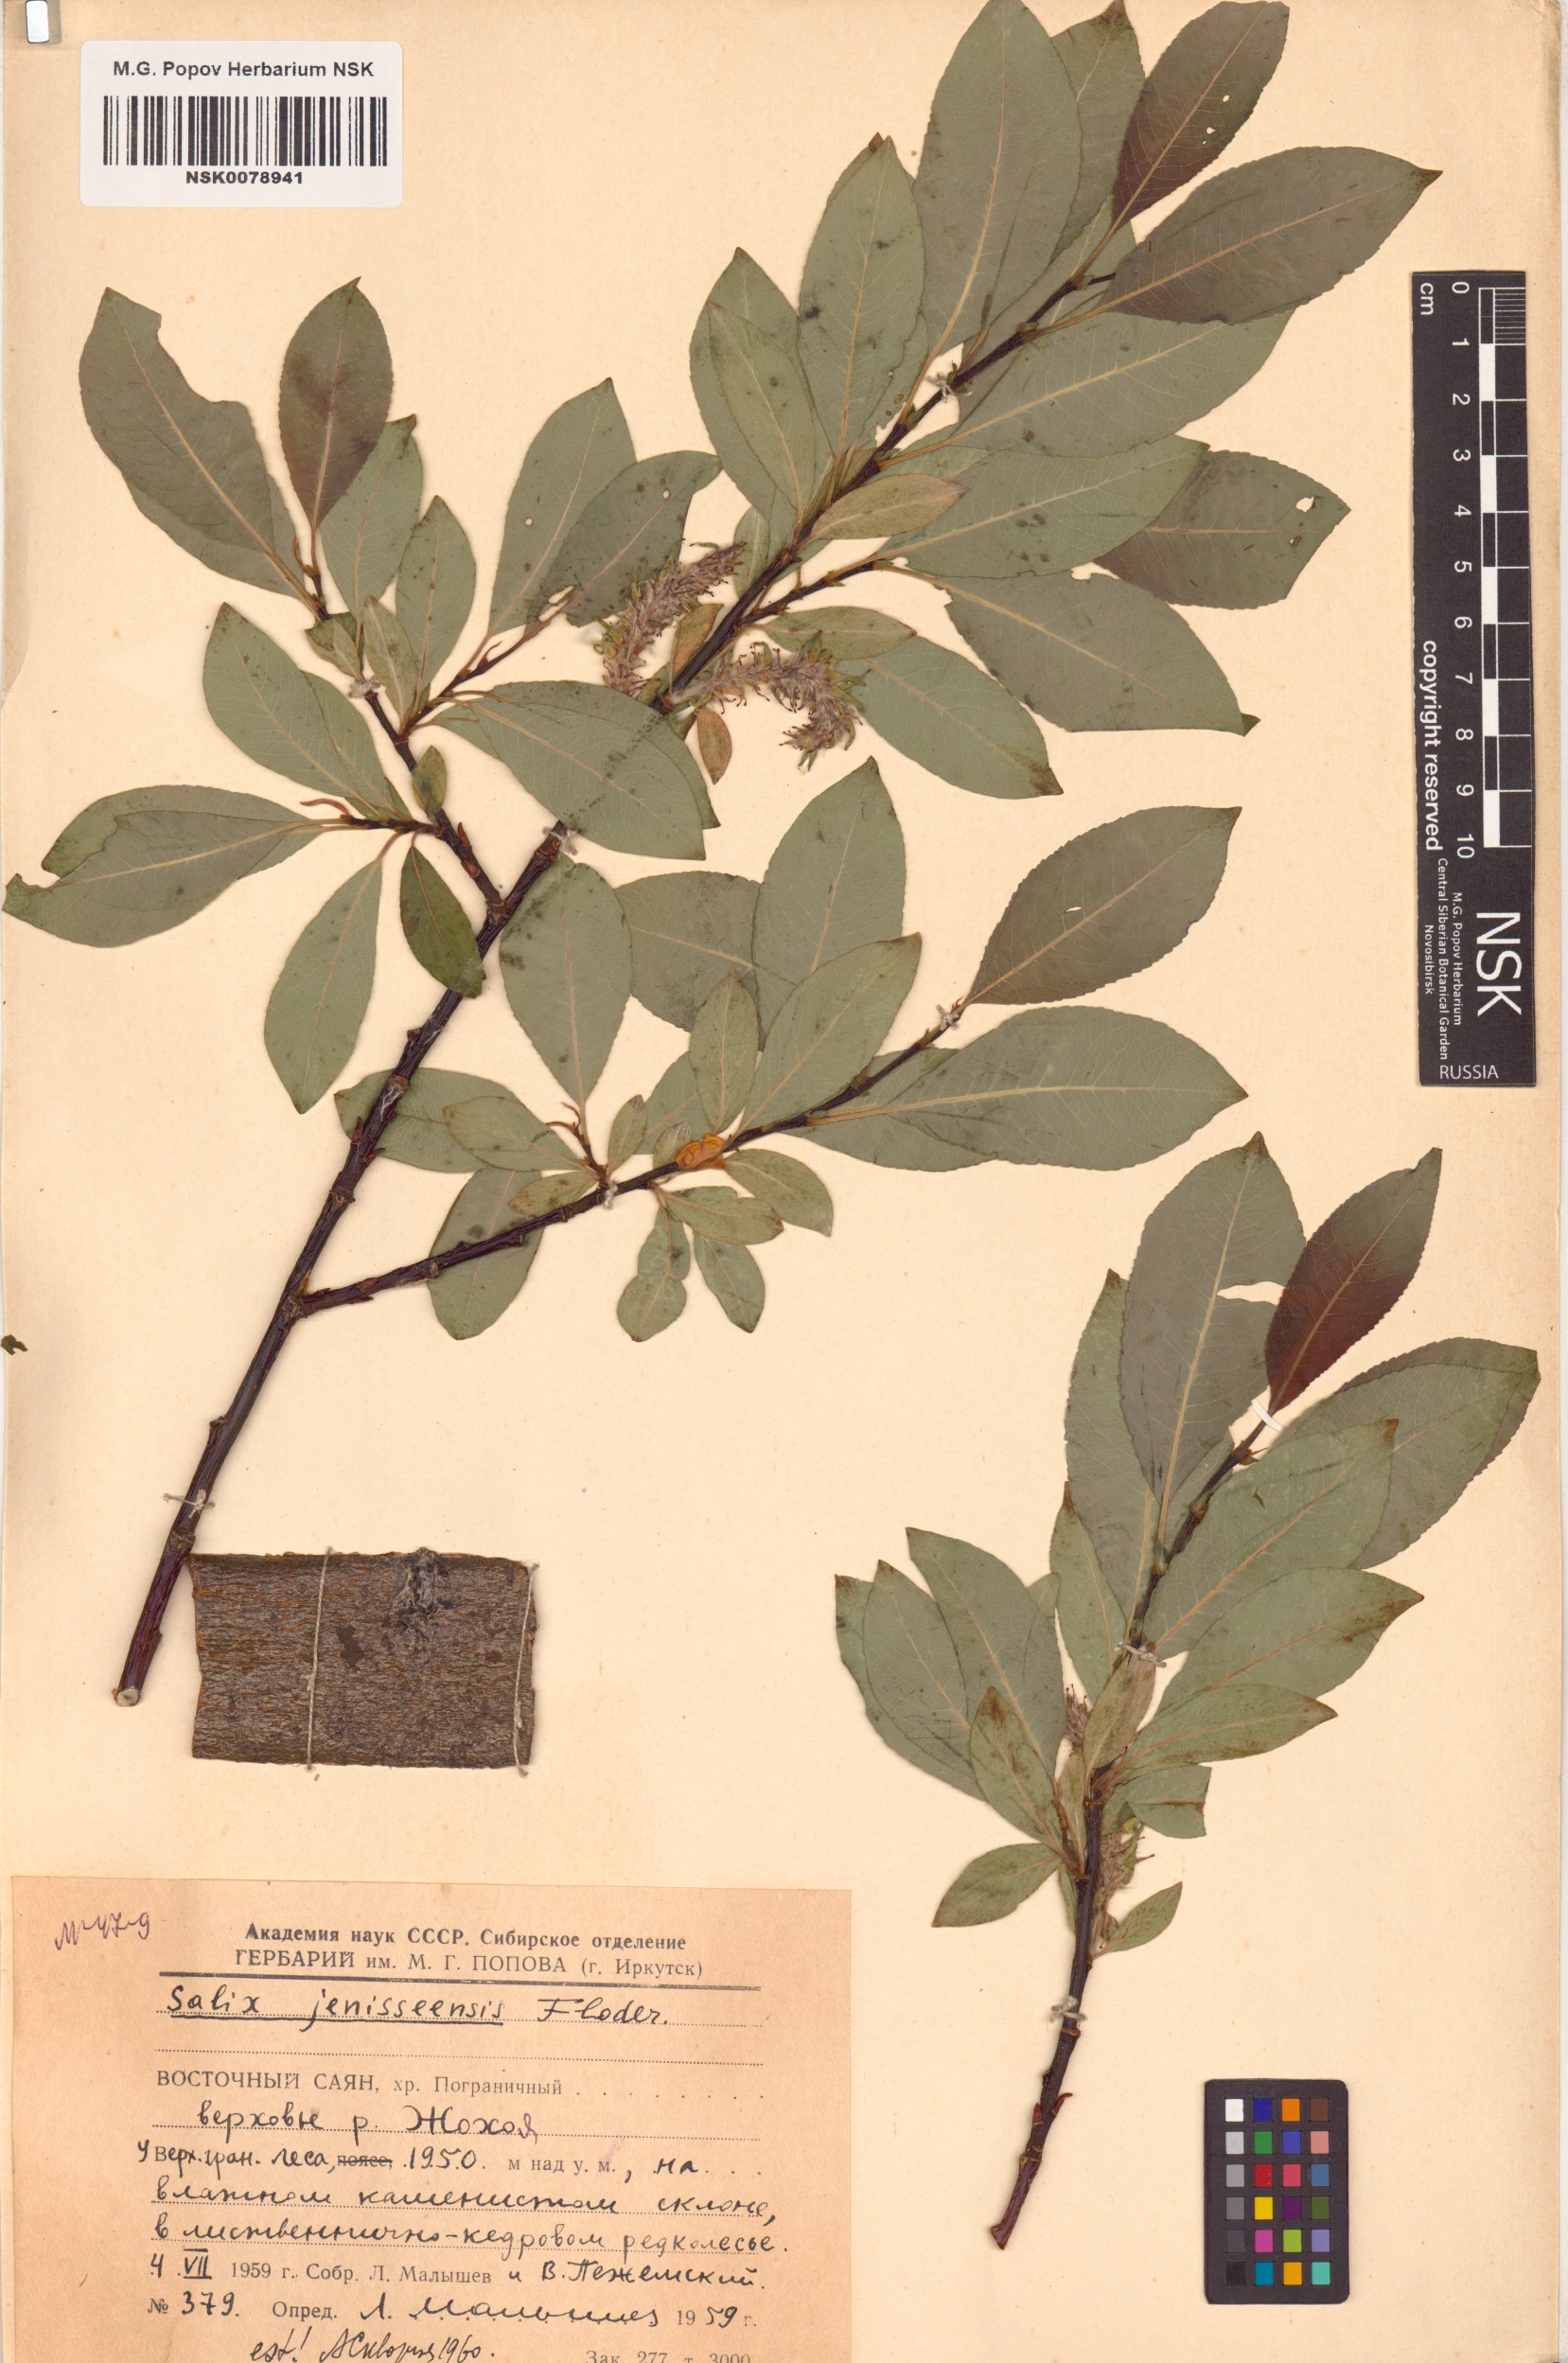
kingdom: Plantae
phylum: Tracheophyta
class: Magnoliopsida
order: Malpighiales
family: Salicaceae
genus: Salix
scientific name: Salix jenisseensis
